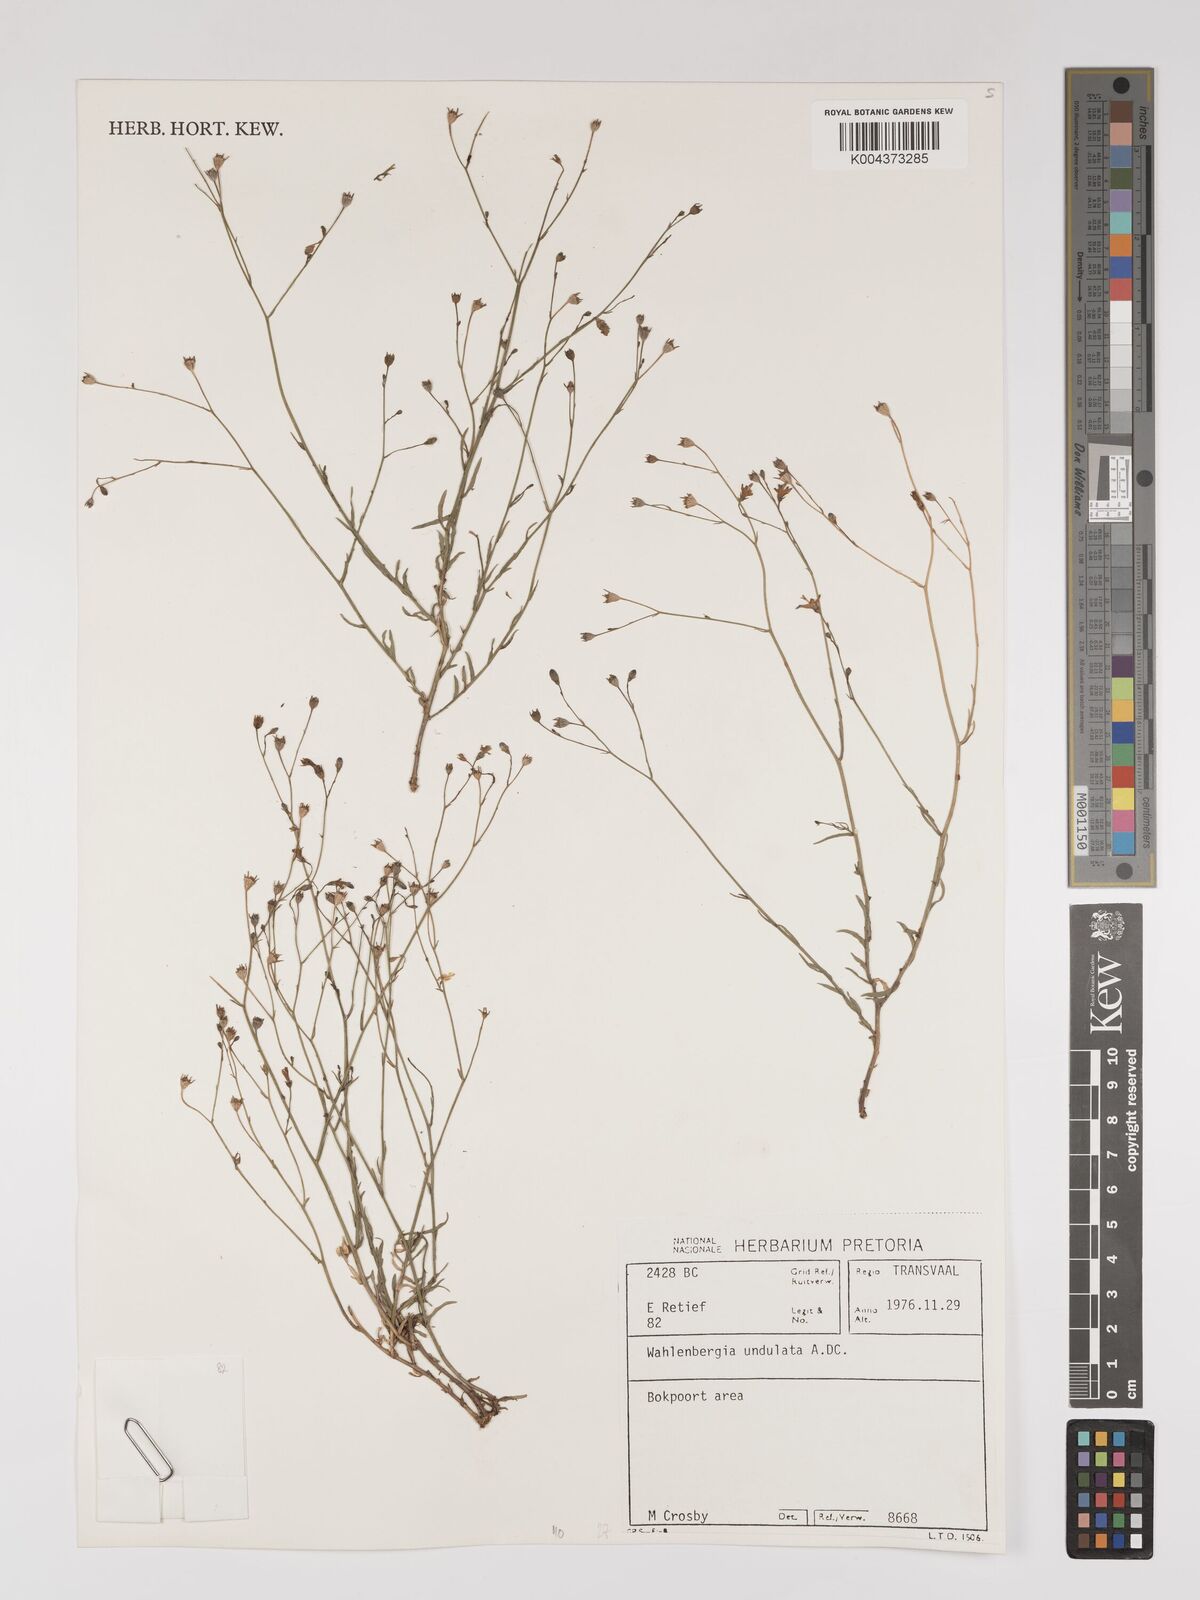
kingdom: Plantae
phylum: Tracheophyta
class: Magnoliopsida
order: Asterales
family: Campanulaceae
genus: Wahlenbergia
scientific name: Wahlenbergia undulata
